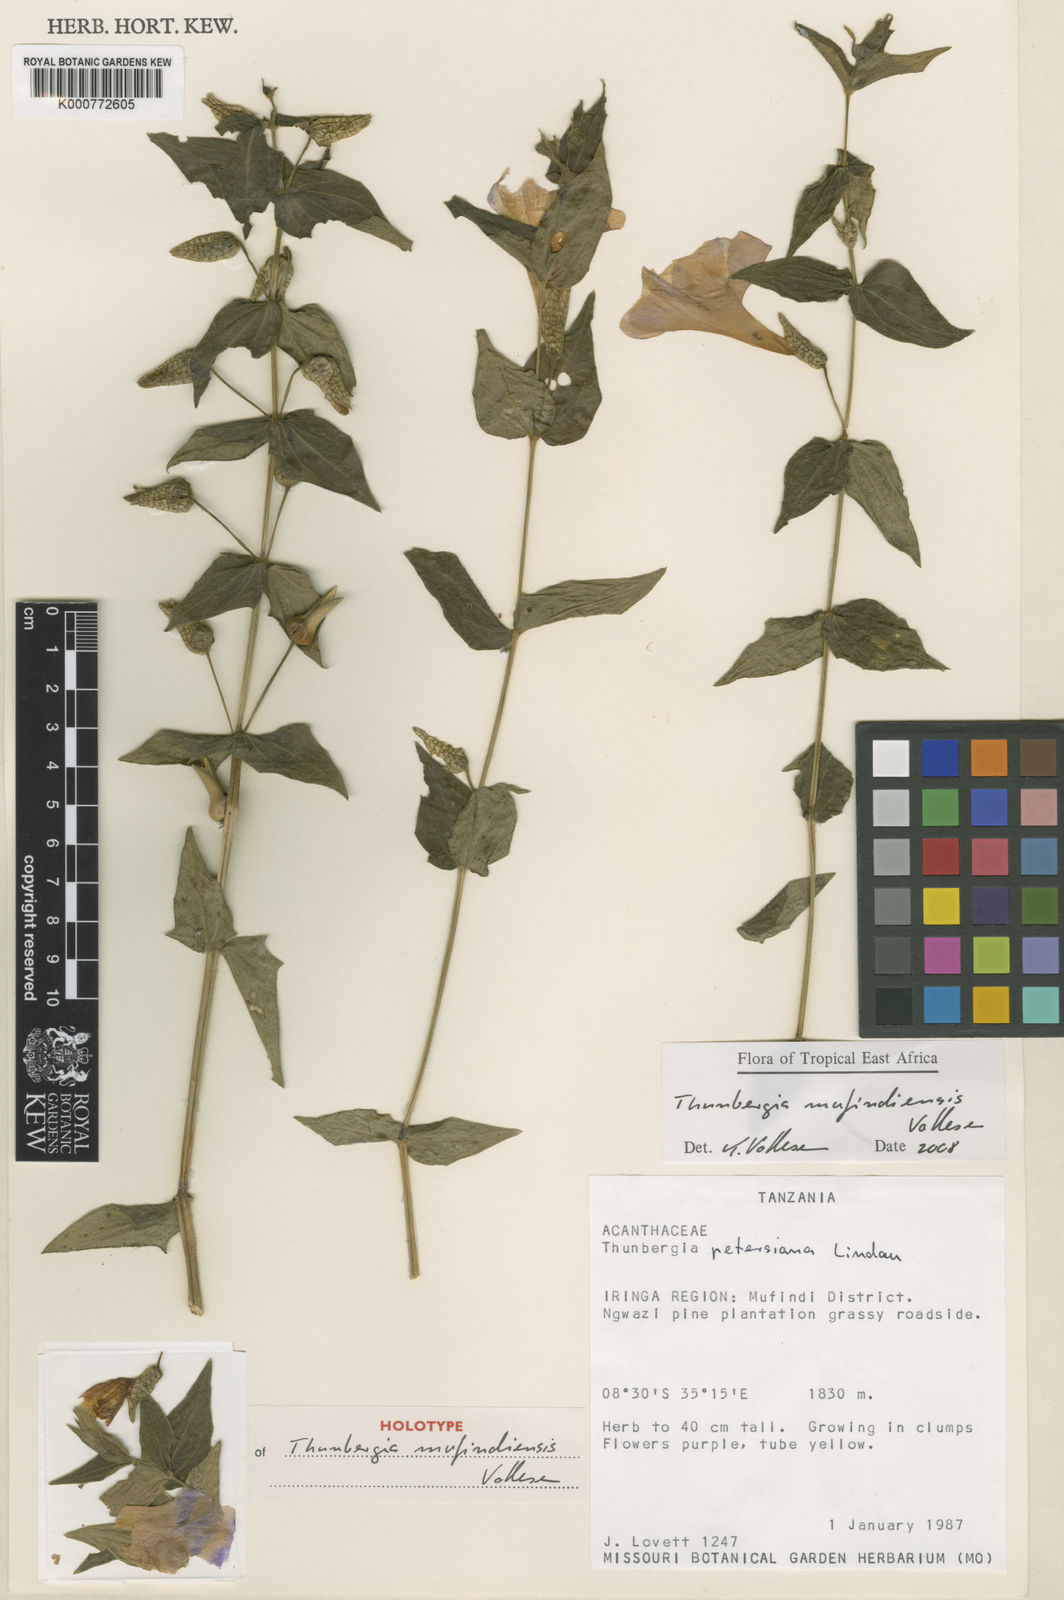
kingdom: Plantae
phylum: Tracheophyta
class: Magnoliopsida
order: Lamiales
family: Acanthaceae
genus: Thunbergia
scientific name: Thunbergia mufindiensis
